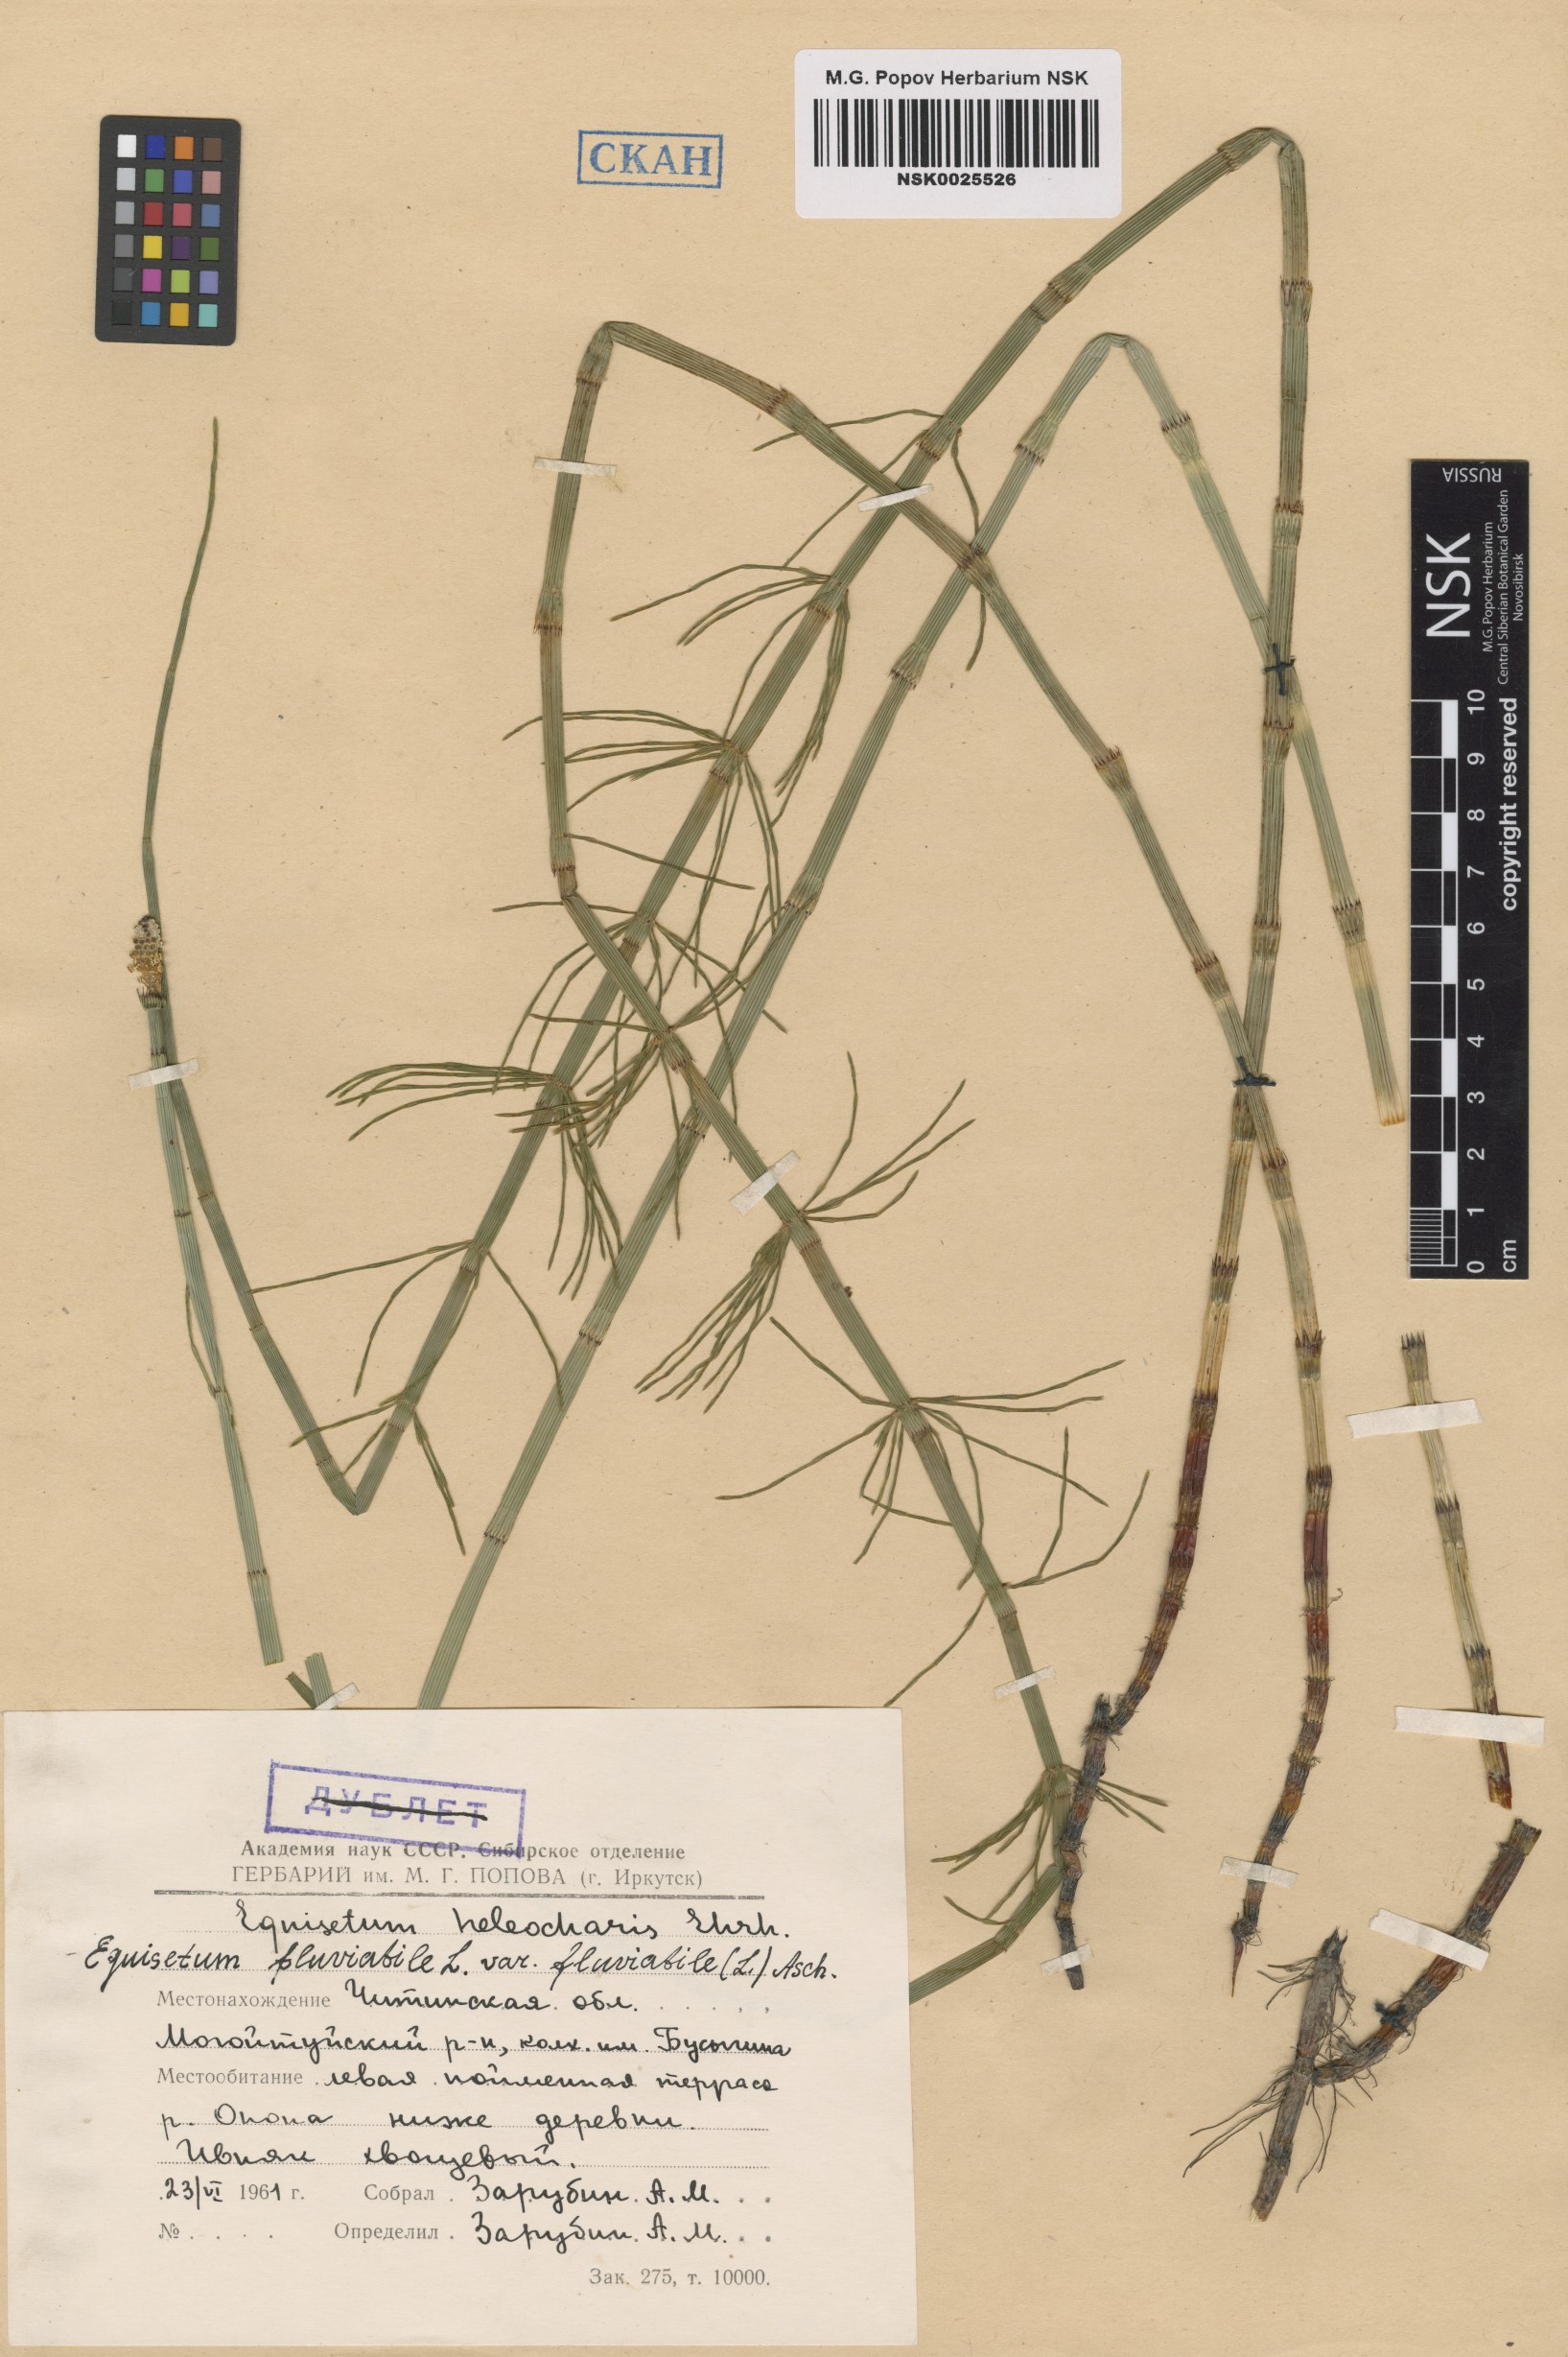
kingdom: Plantae
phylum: Tracheophyta
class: Polypodiopsida
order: Equisetales
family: Equisetaceae
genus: Equisetum
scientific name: Equisetum fluviatile
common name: Water horsetail
